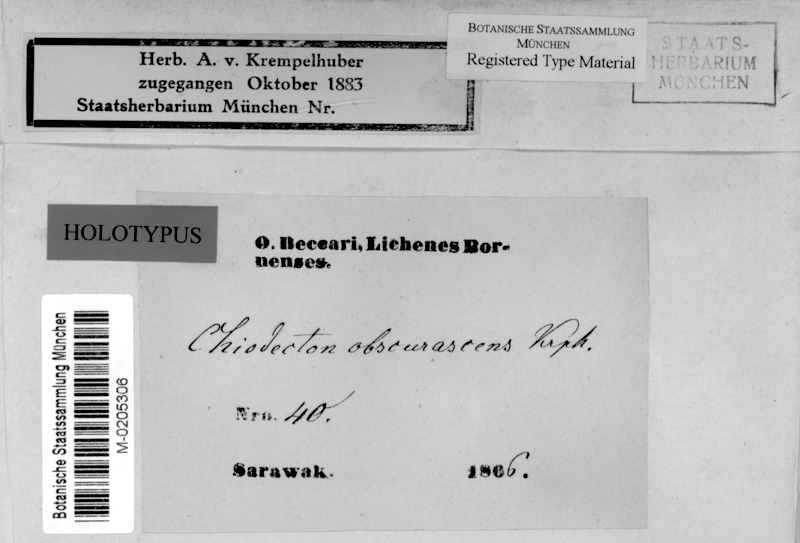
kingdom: Fungi
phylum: Ascomycota
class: Arthoniomycetes
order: Arthoniales
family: Roccellaceae
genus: Chiodecton
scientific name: Chiodecton
